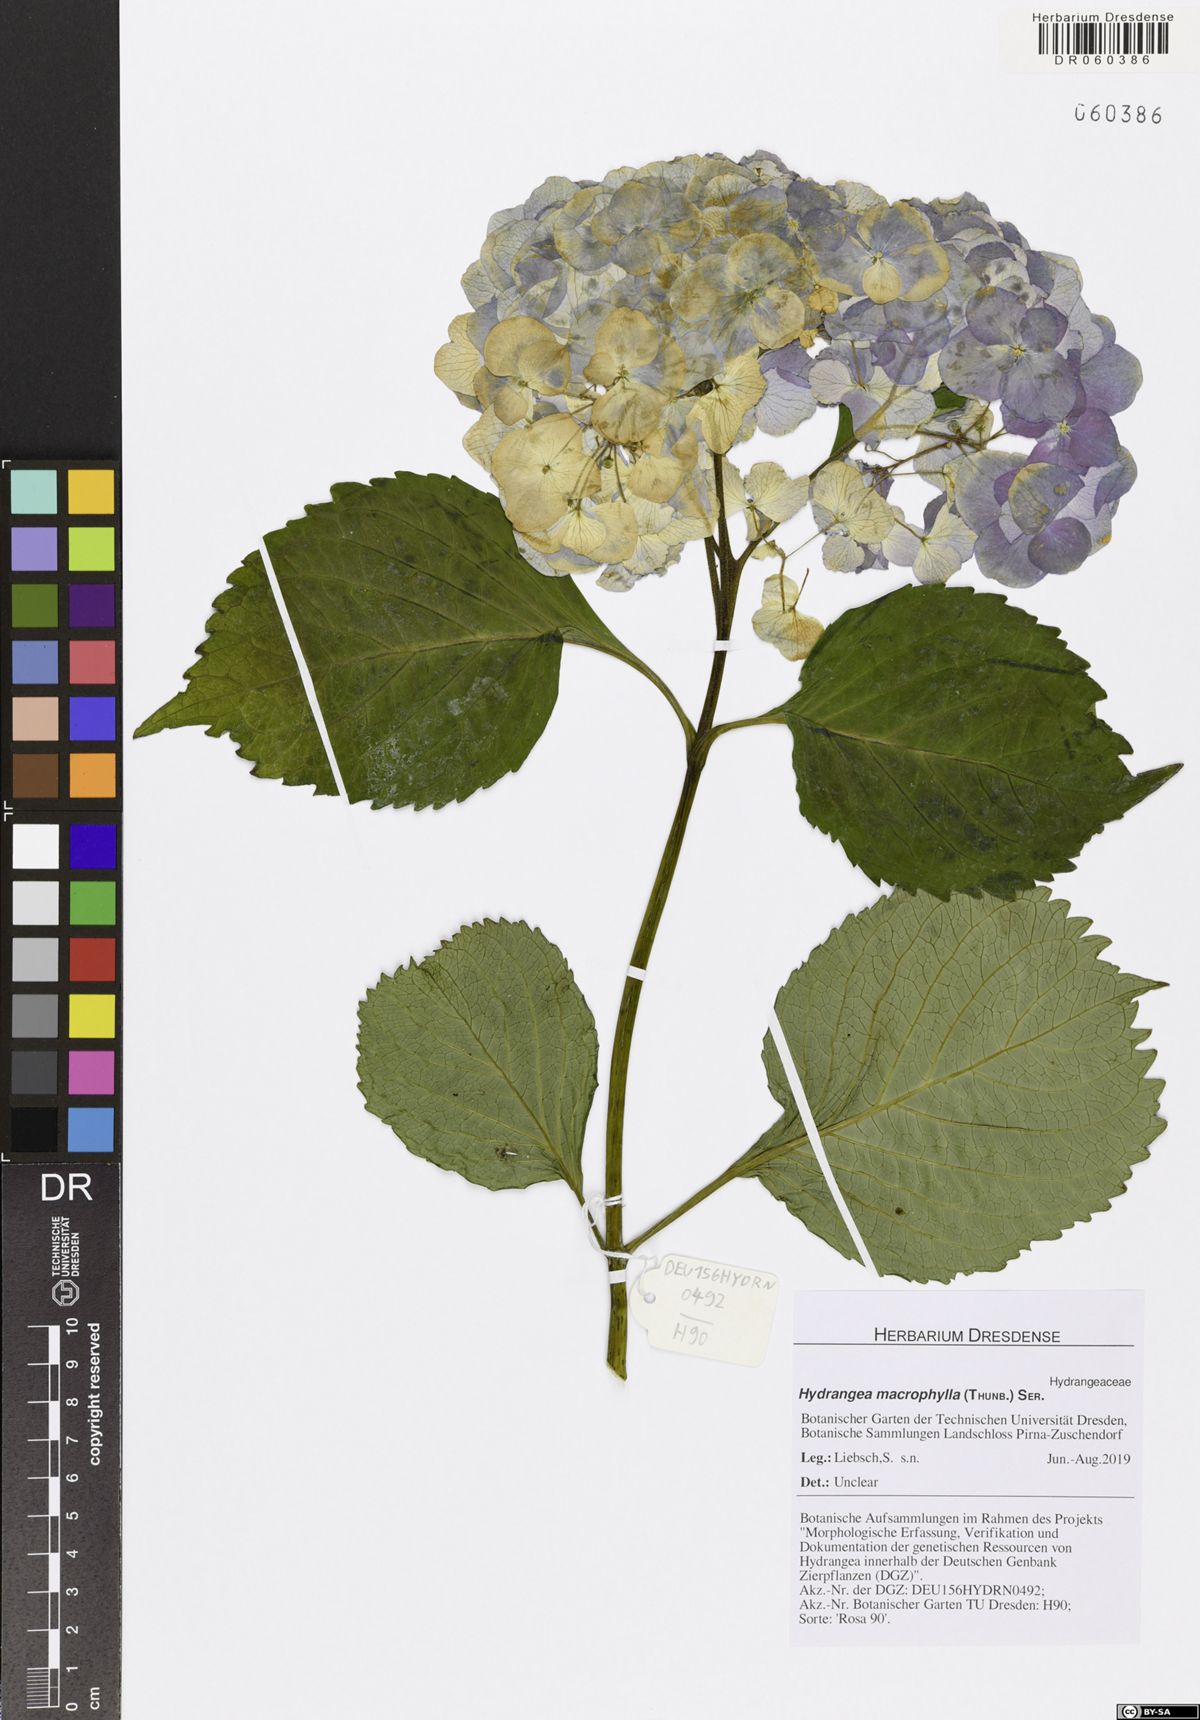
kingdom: Plantae
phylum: Tracheophyta
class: Magnoliopsida
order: Cornales
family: Hydrangeaceae
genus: Hydrangea
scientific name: Hydrangea macrophylla
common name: Hydrangea
